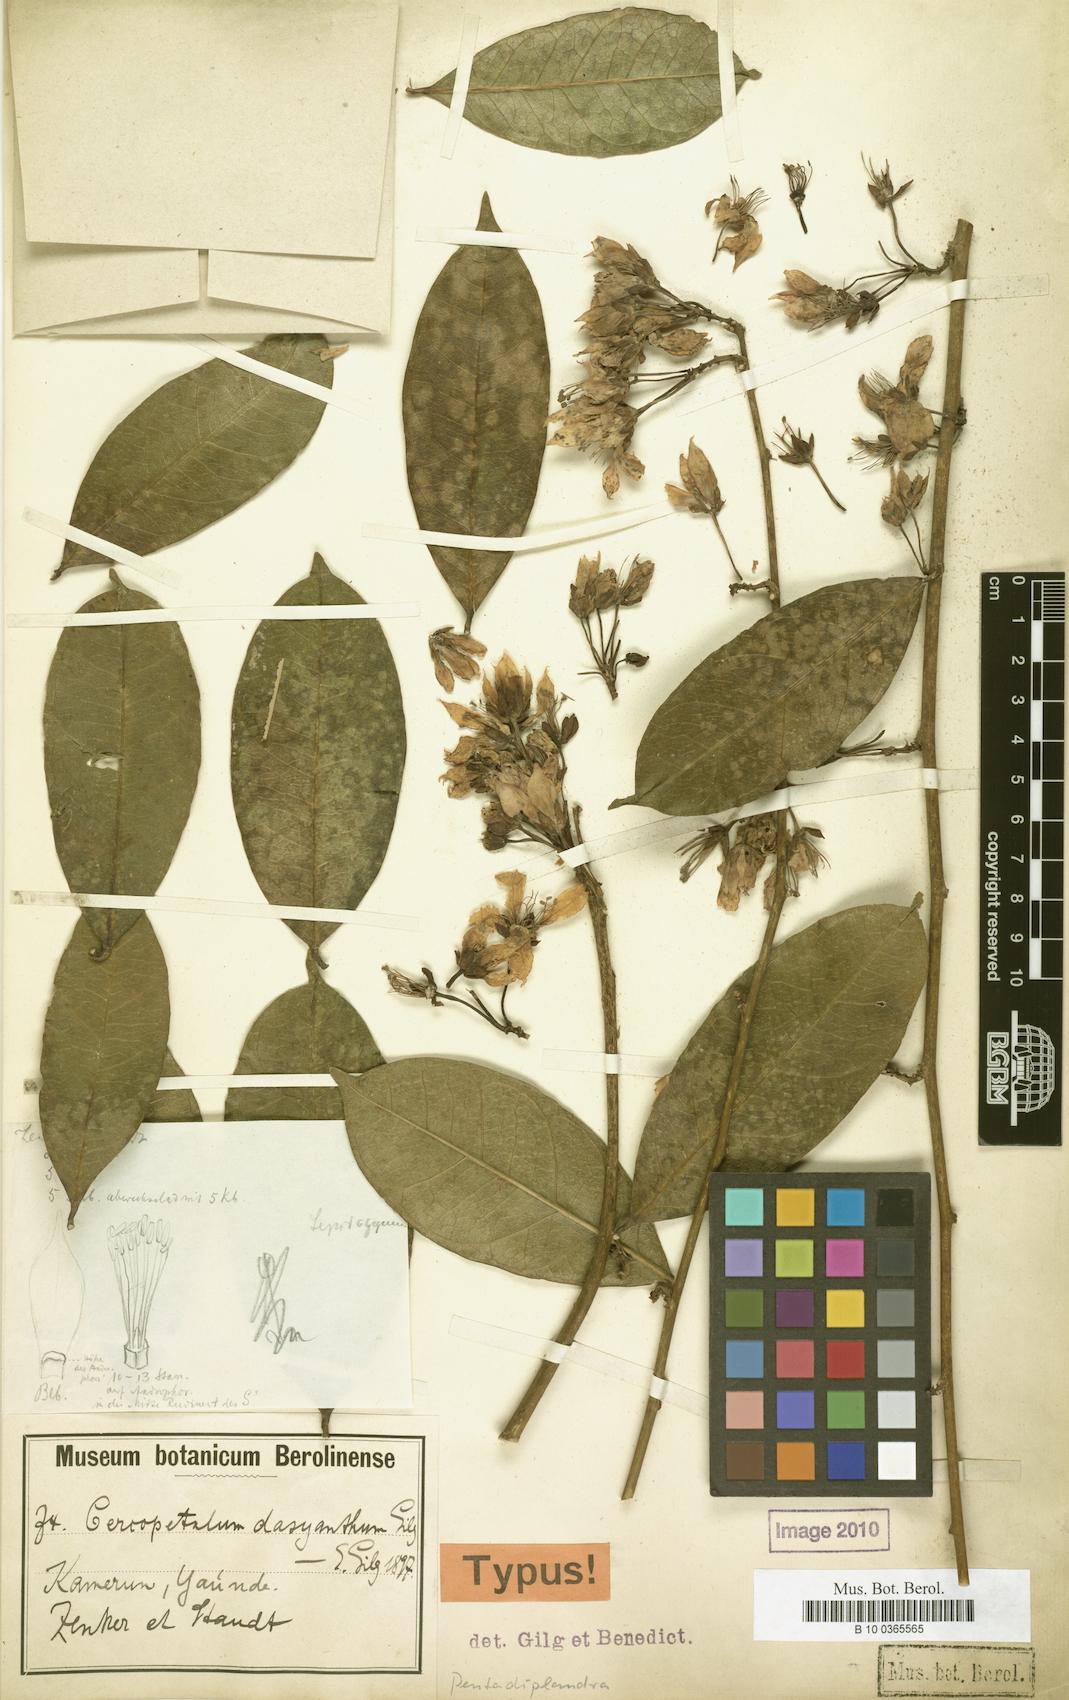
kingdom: Plantae
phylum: Tracheophyta
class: Magnoliopsida
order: Brassicales
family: Pentadiplandraceae
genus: Pentadiplandra
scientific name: Pentadiplandra brazzeana
